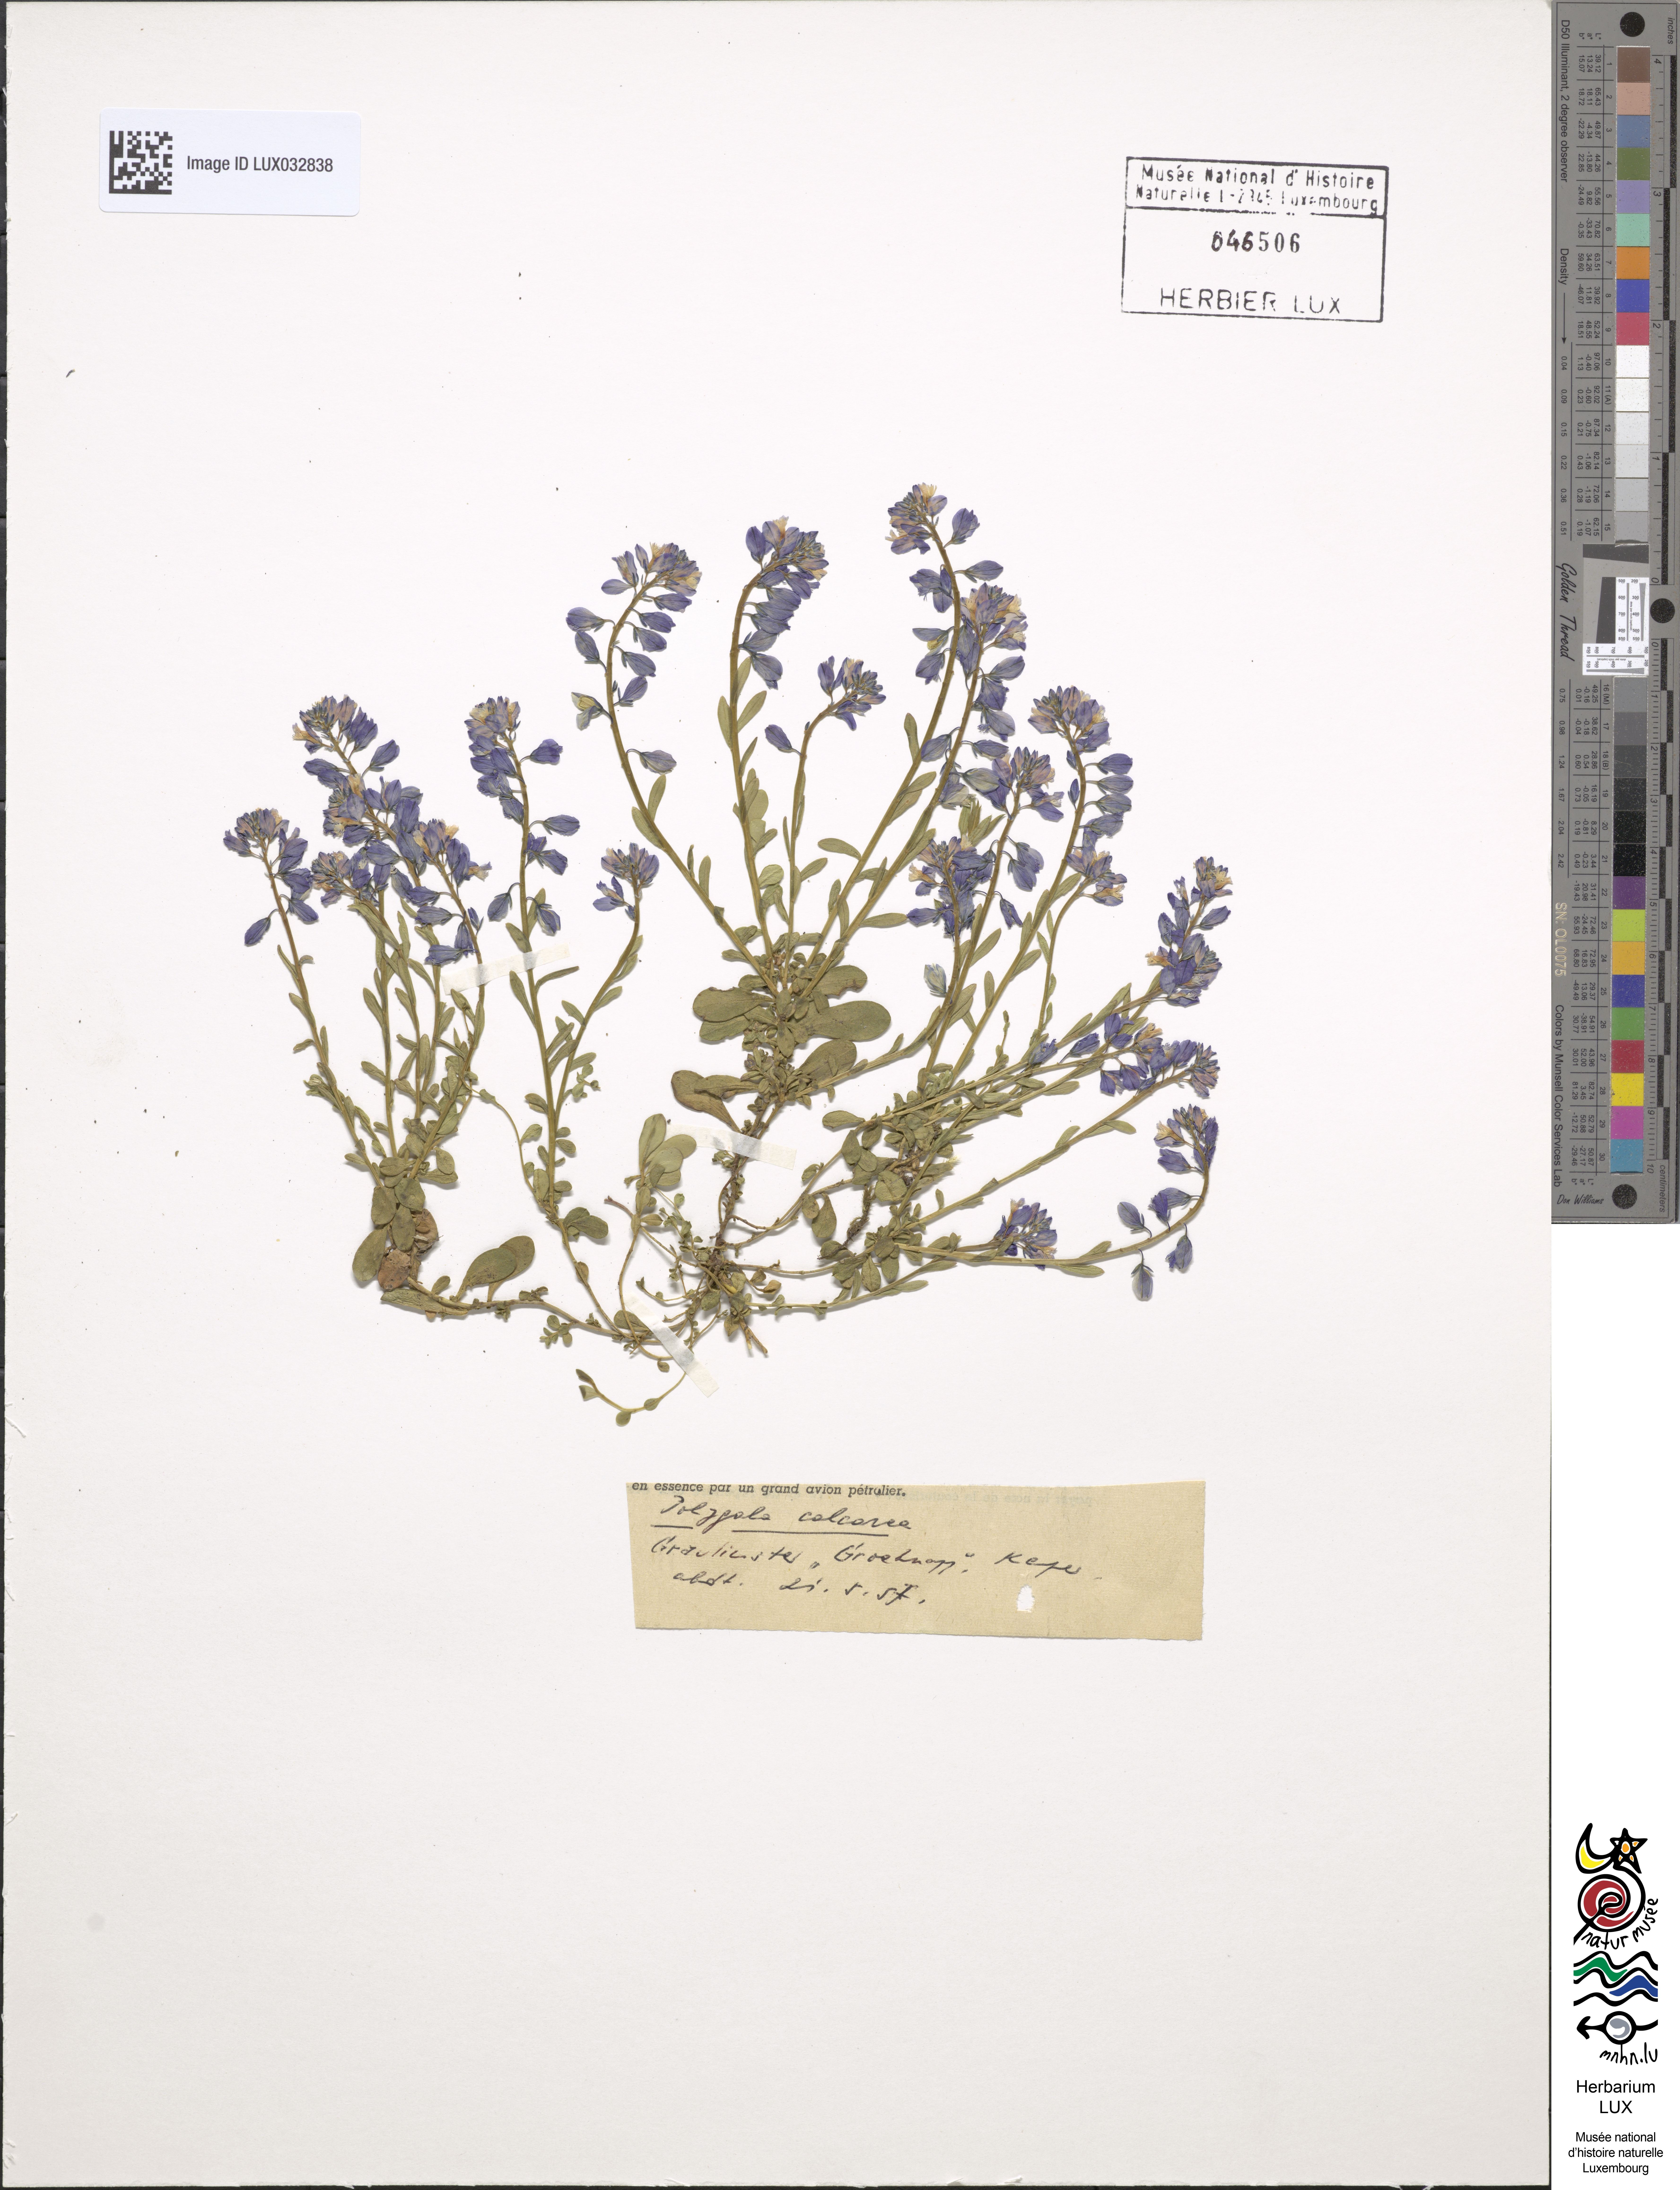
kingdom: Plantae
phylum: Tracheophyta
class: Magnoliopsida
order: Fabales
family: Polygalaceae
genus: Polygala
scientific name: Polygala calcarea
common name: Chalk milkwort
